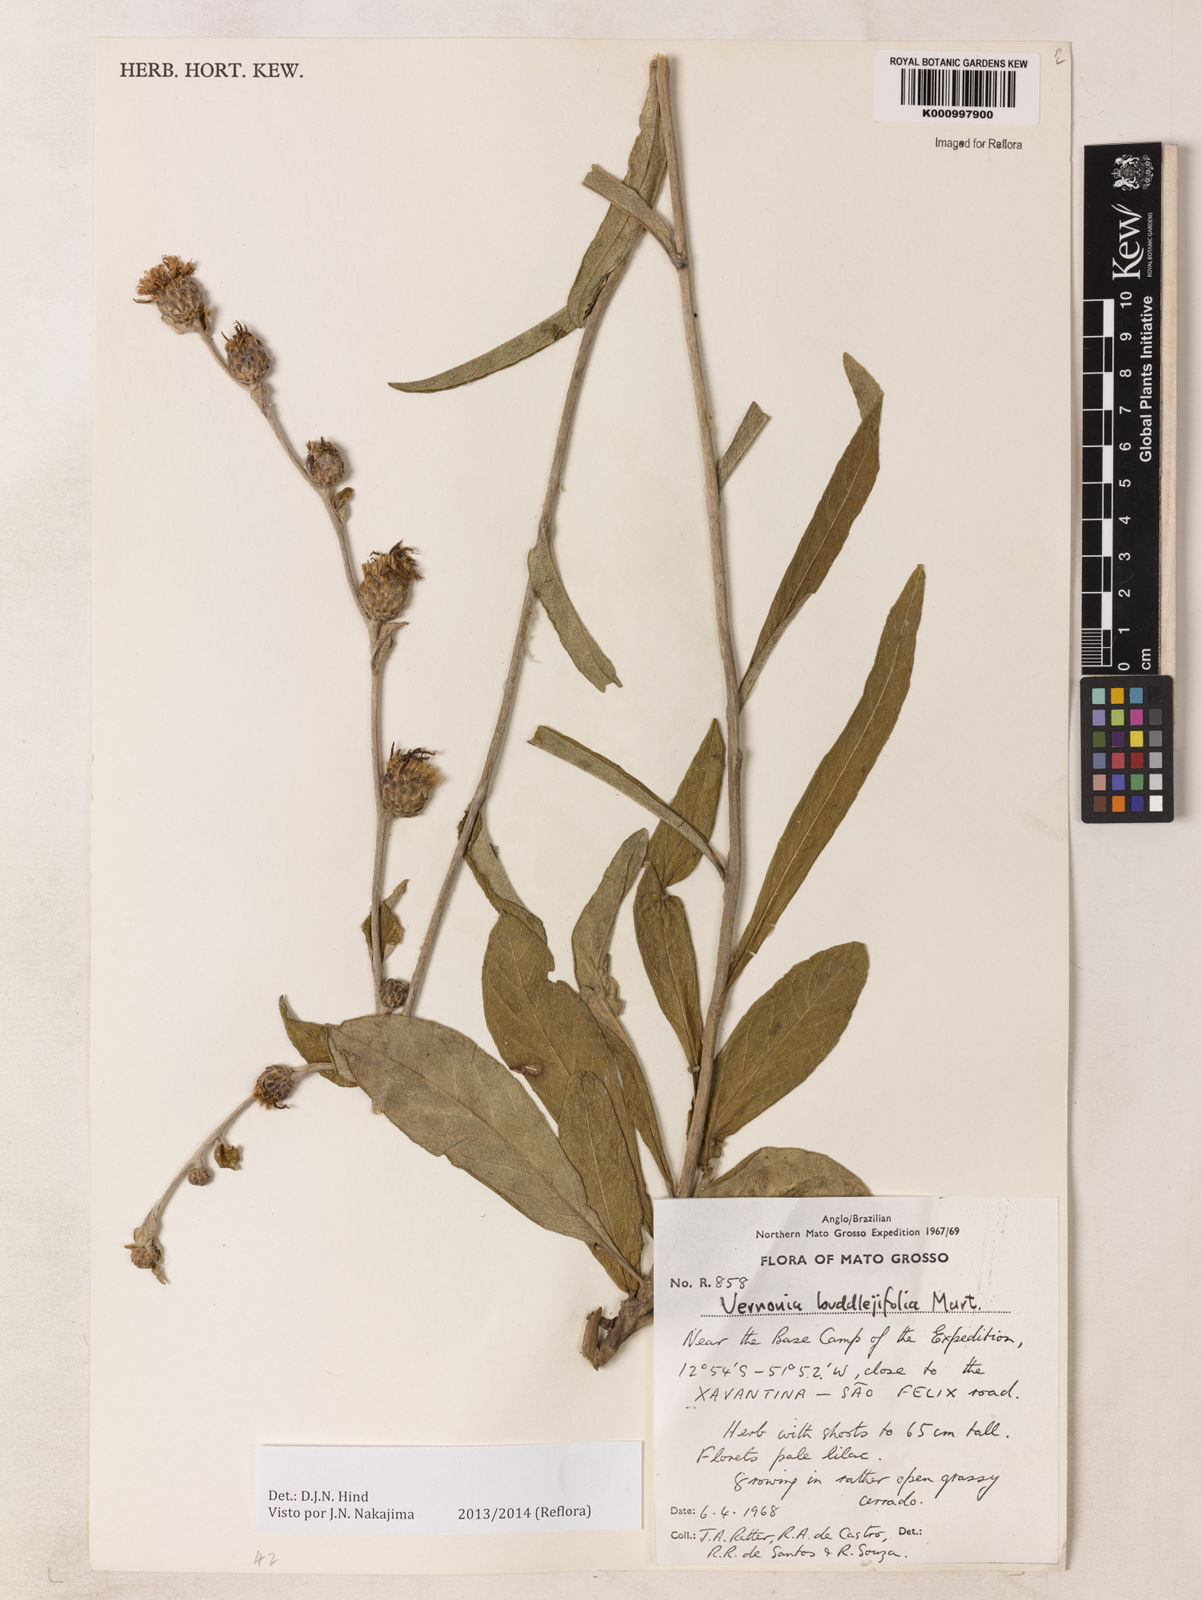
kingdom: Plantae
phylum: Tracheophyta
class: Magnoliopsida
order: Asterales
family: Asteraceae
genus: Lessingianthus
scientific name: Lessingianthus buddlejifolius
